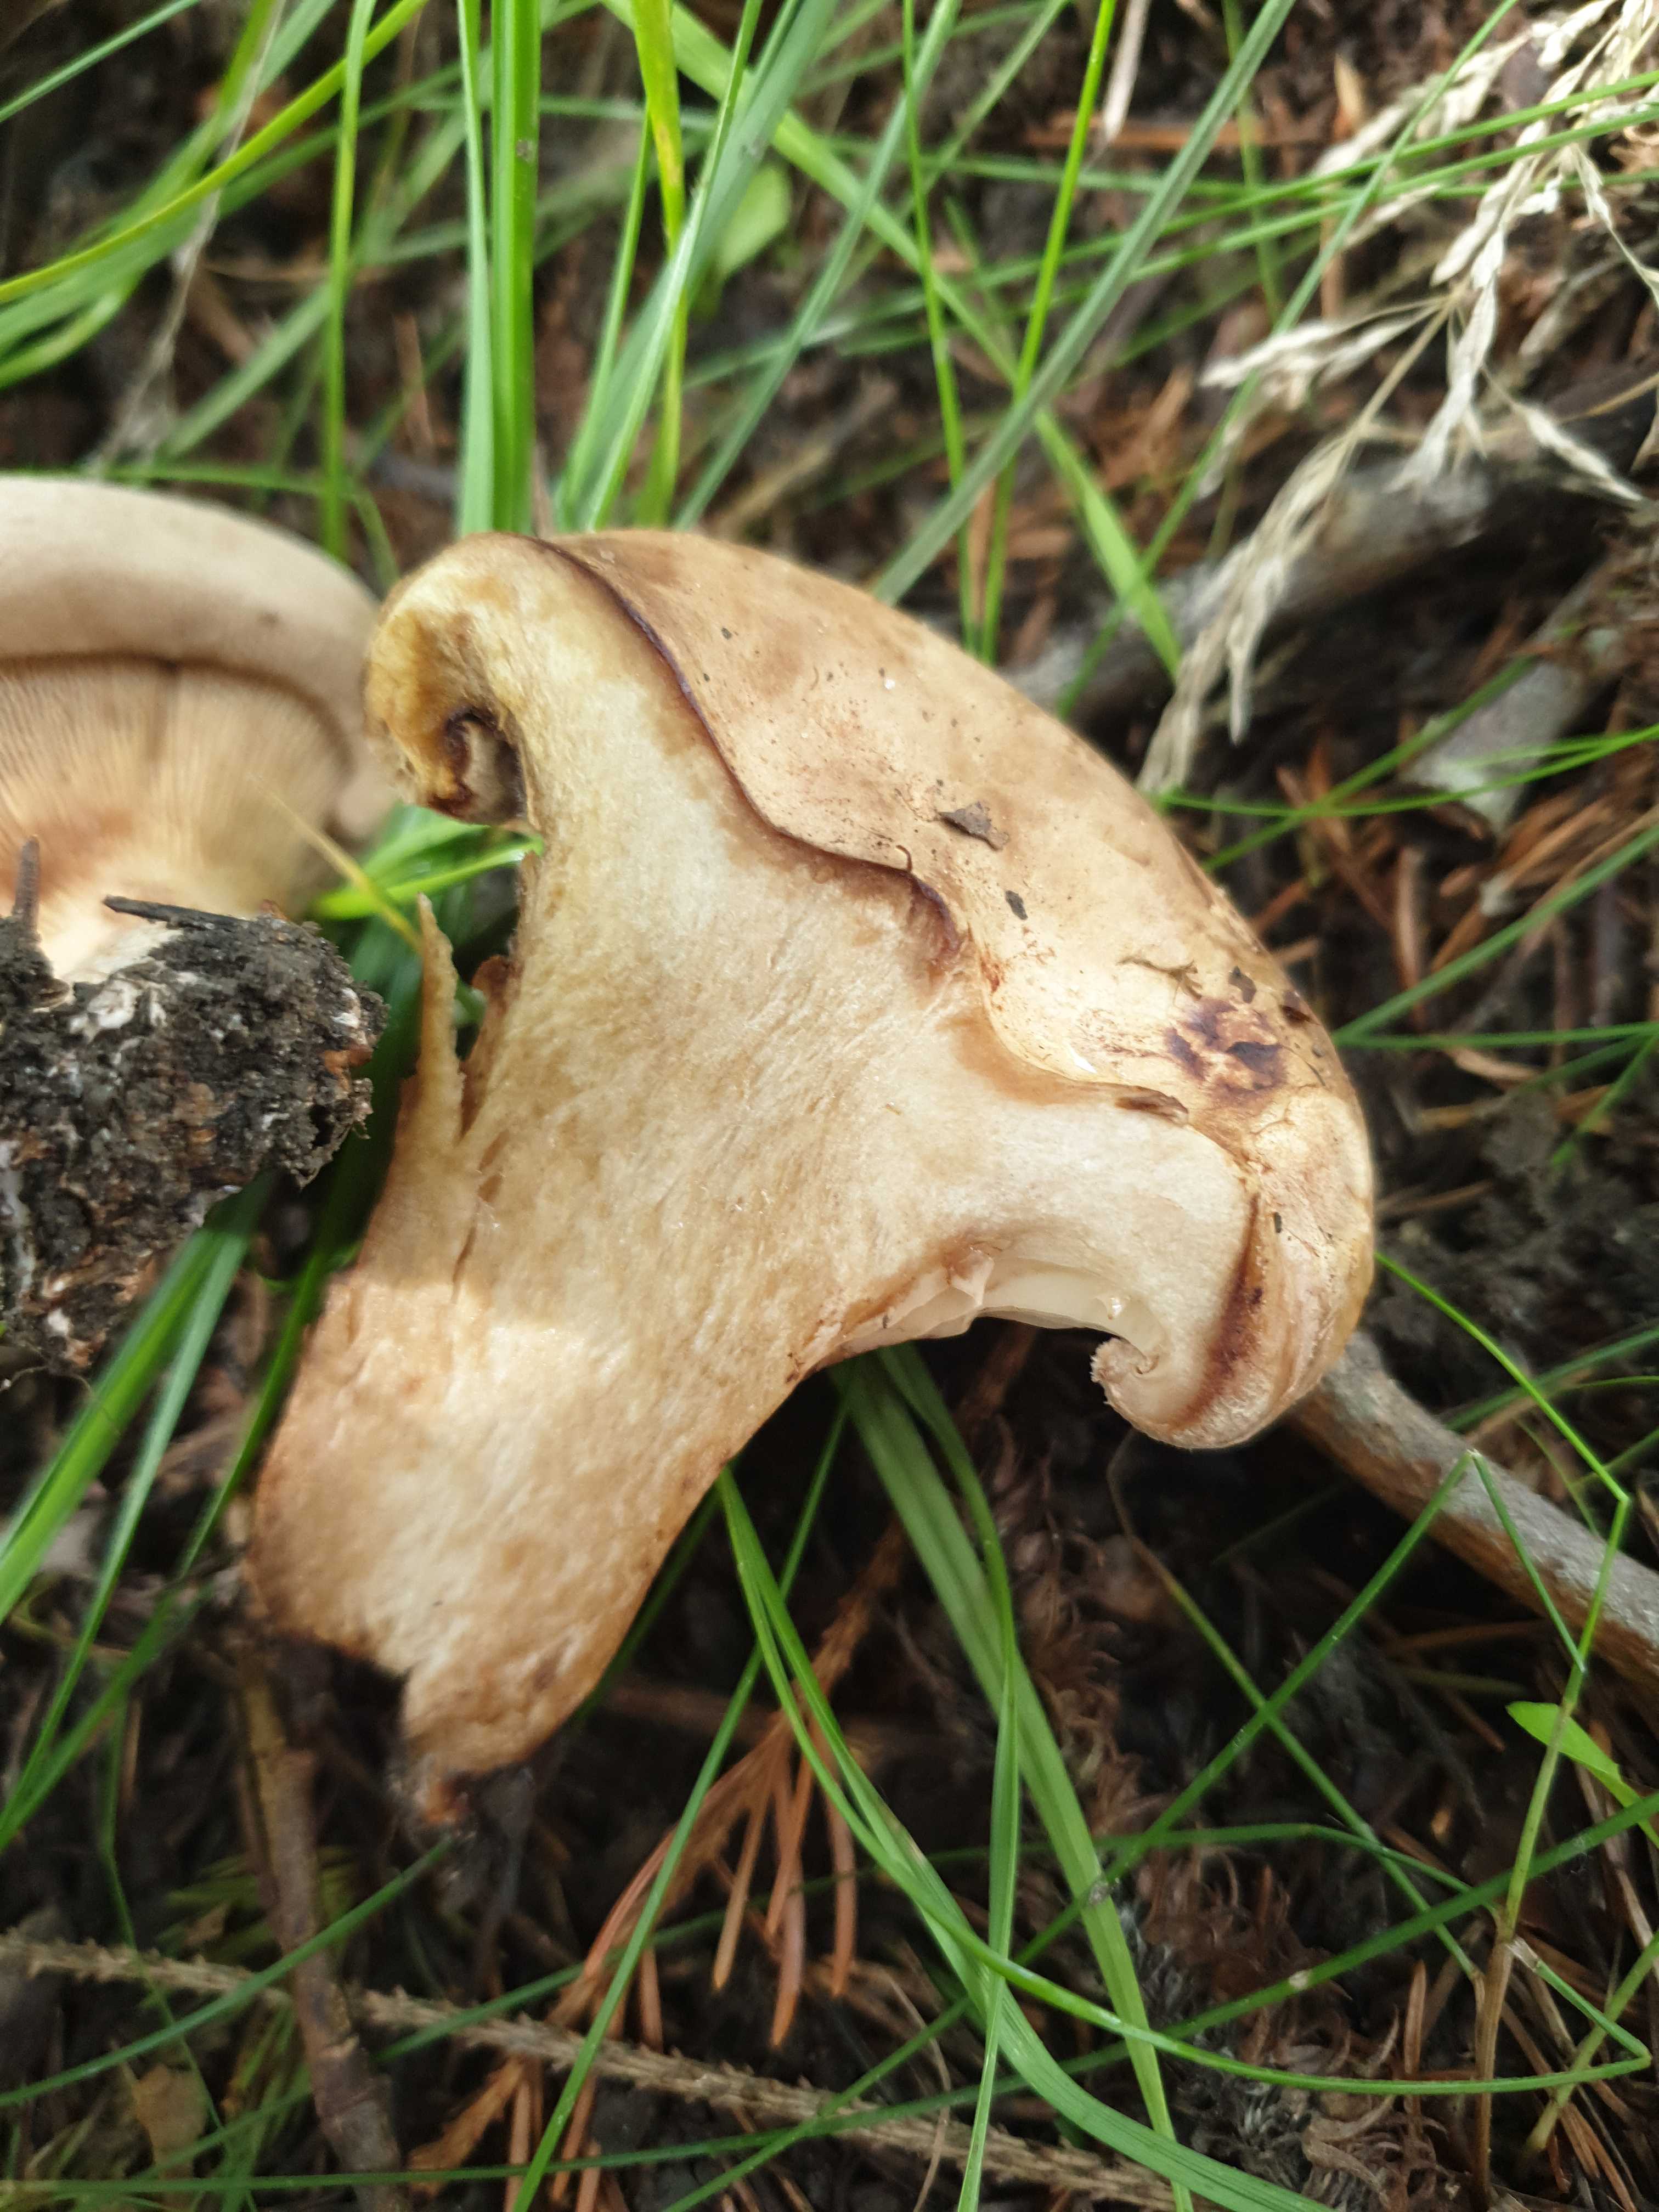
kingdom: Fungi
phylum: Basidiomycota
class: Agaricomycetes
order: Boletales
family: Paxillaceae
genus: Paxillus
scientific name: Paxillus
